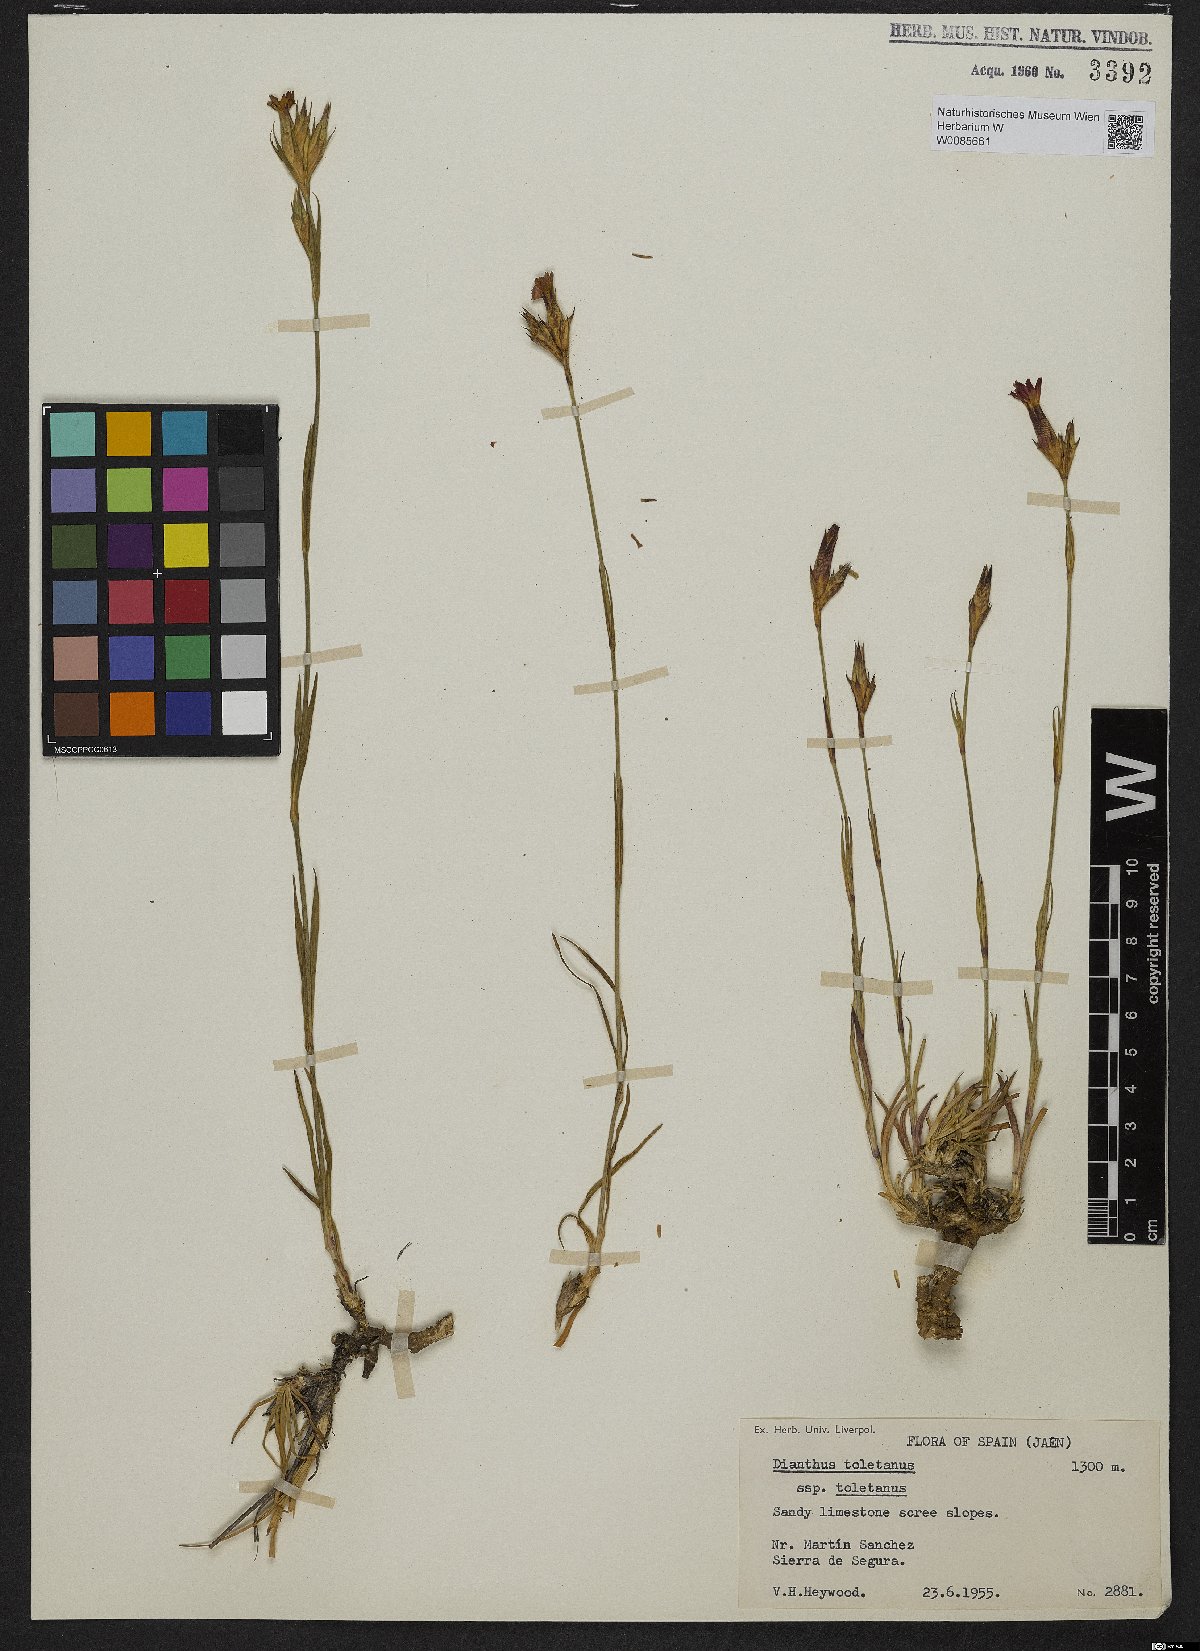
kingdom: Plantae
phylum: Tracheophyta
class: Magnoliopsida
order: Caryophyllales
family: Caryophyllaceae
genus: Dianthus
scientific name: Dianthus toletanus
